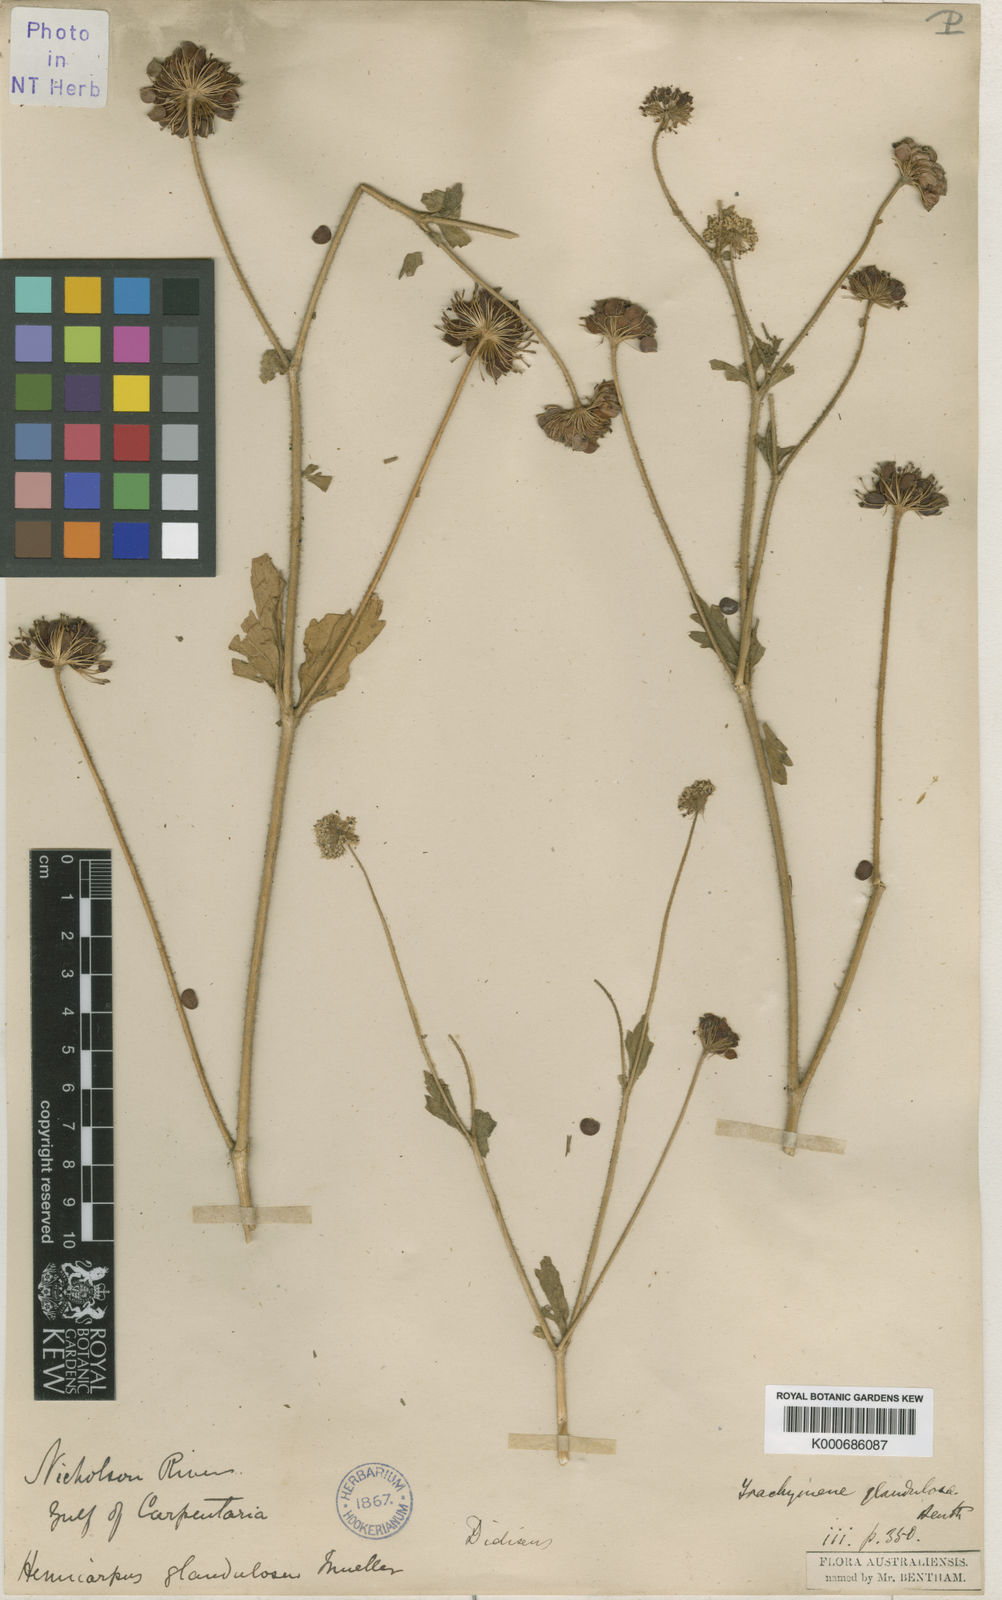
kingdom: Plantae
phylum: Tracheophyta
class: Magnoliopsida
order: Apiales
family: Araliaceae
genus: Trachymene
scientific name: Trachymene glandulosa
